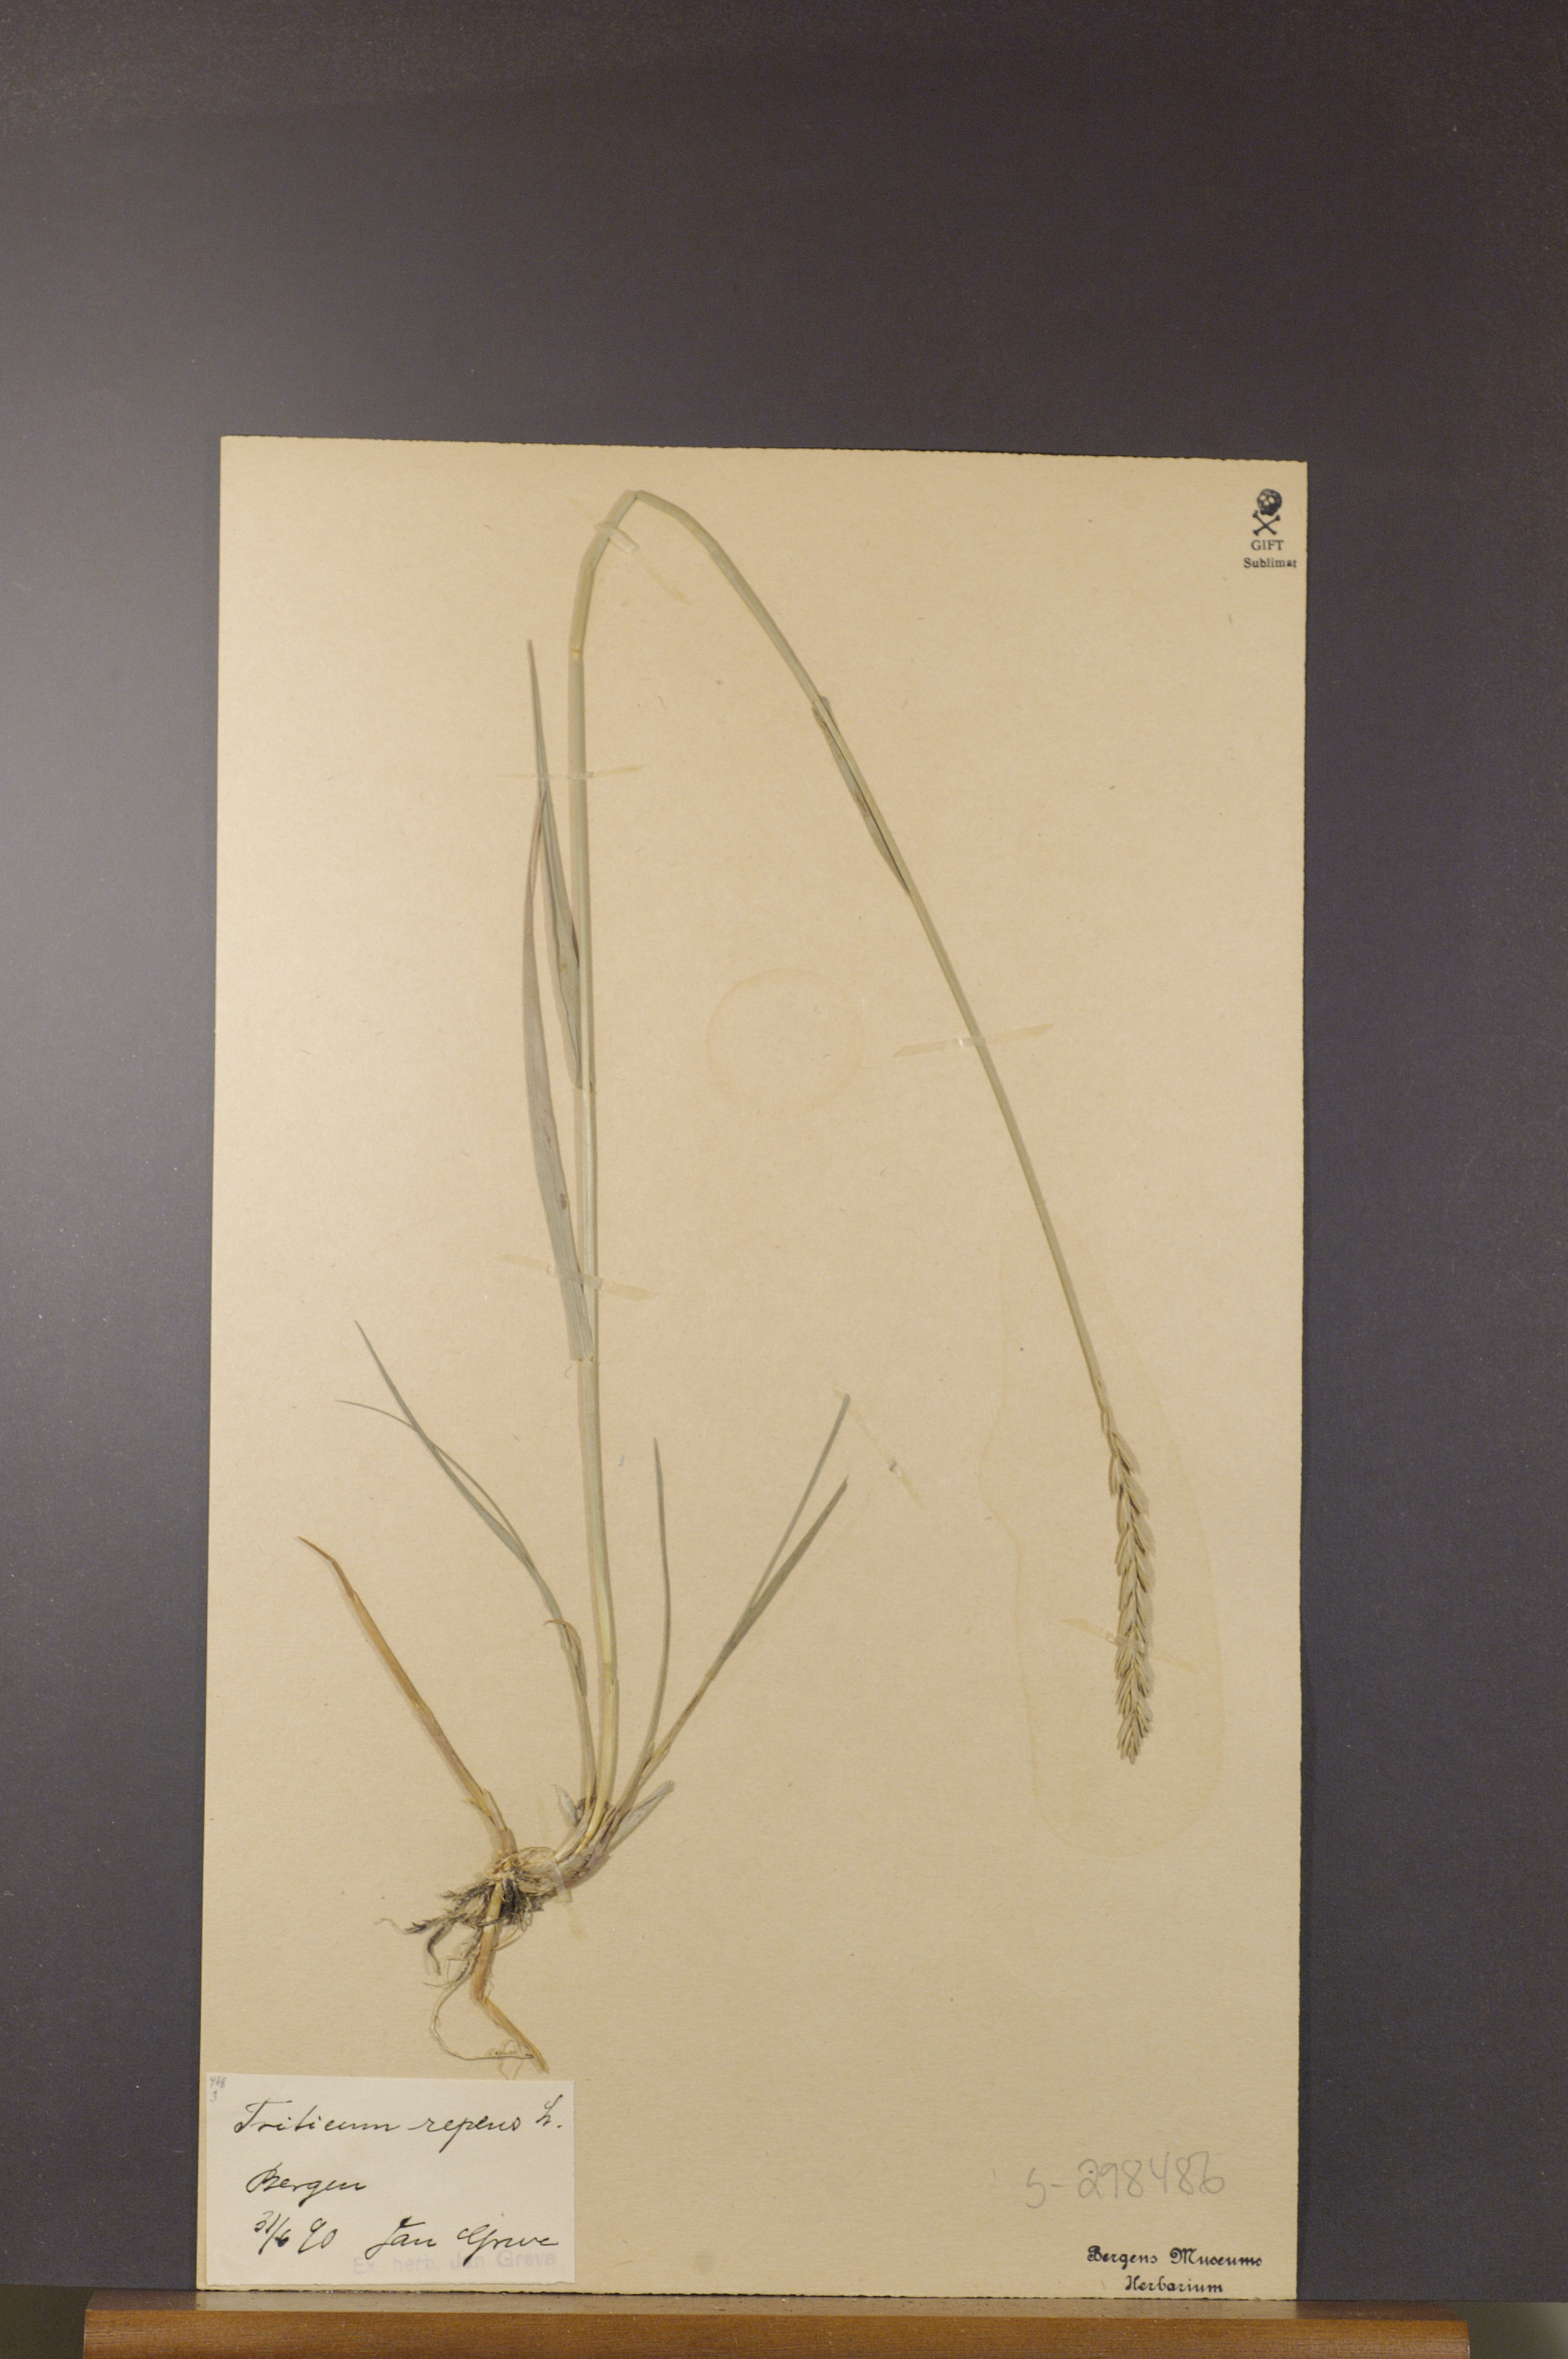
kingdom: Plantae
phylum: Tracheophyta
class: Liliopsida
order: Poales
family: Poaceae
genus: Elymus
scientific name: Elymus repens
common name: Quackgrass
